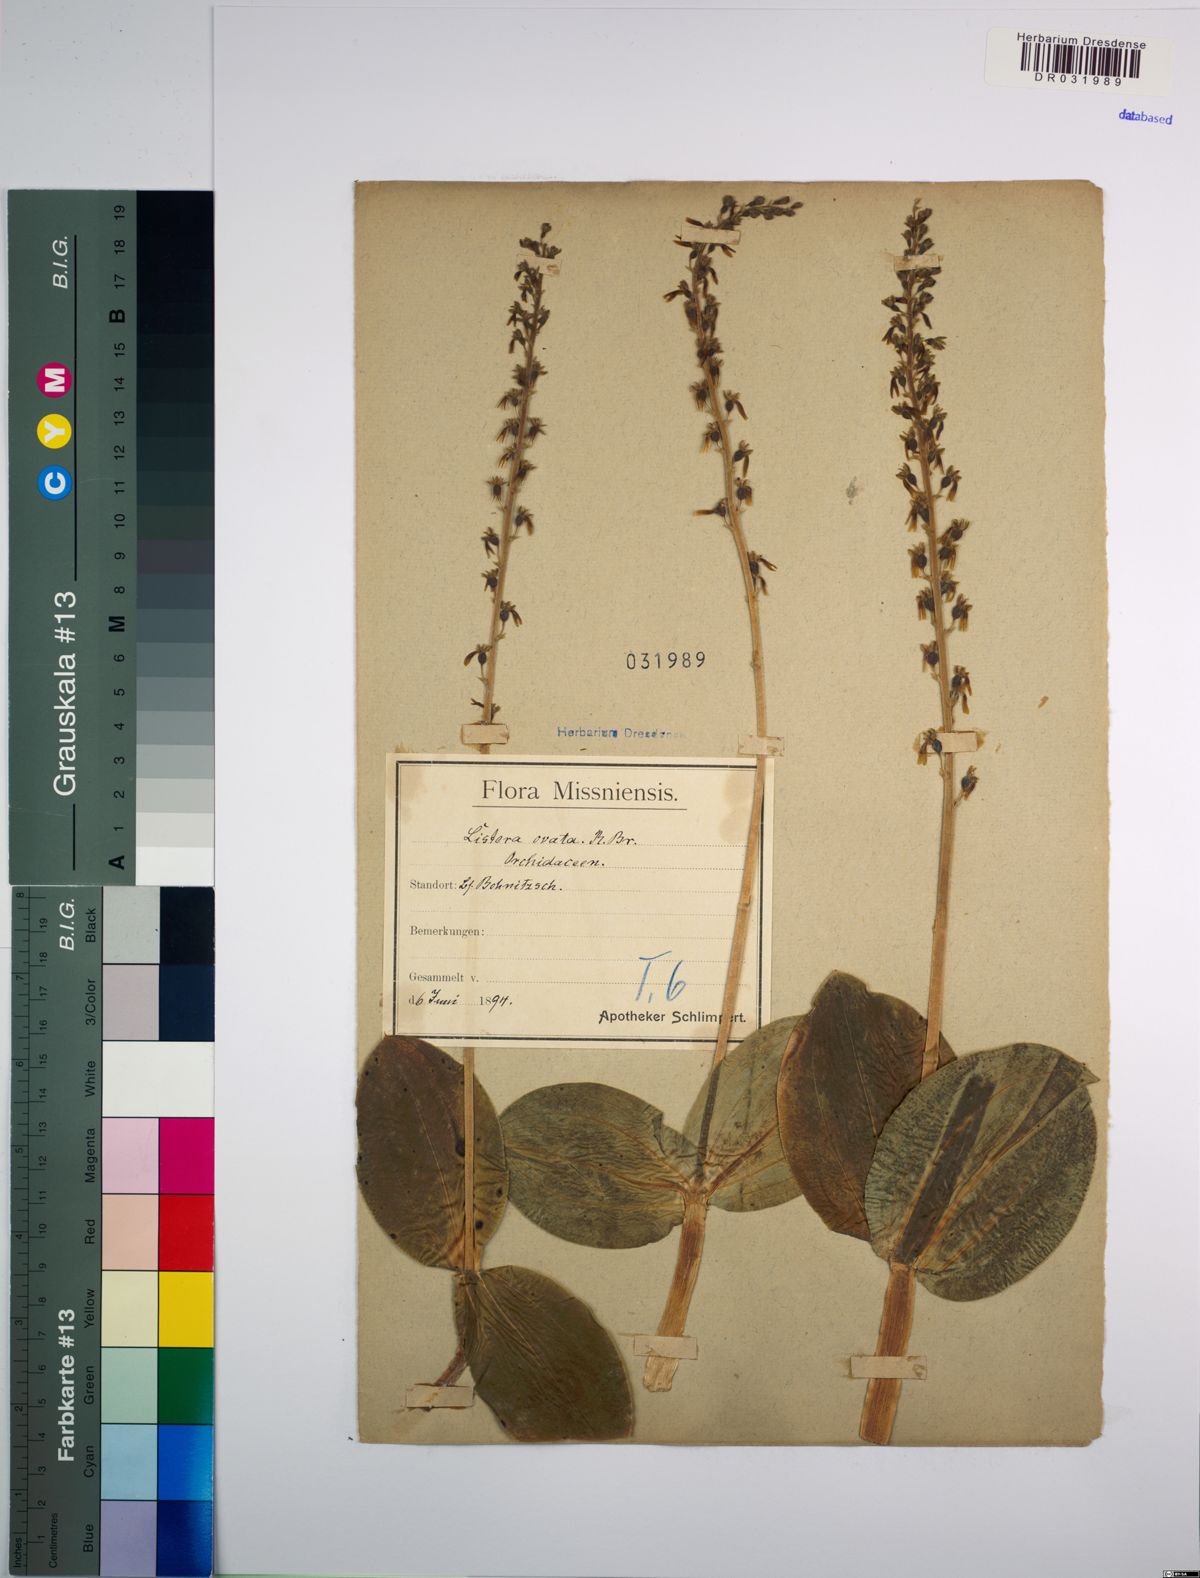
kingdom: Plantae
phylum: Tracheophyta
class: Liliopsida
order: Asparagales
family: Orchidaceae
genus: Neottia
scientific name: Neottia ovata
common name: Common twayblade
